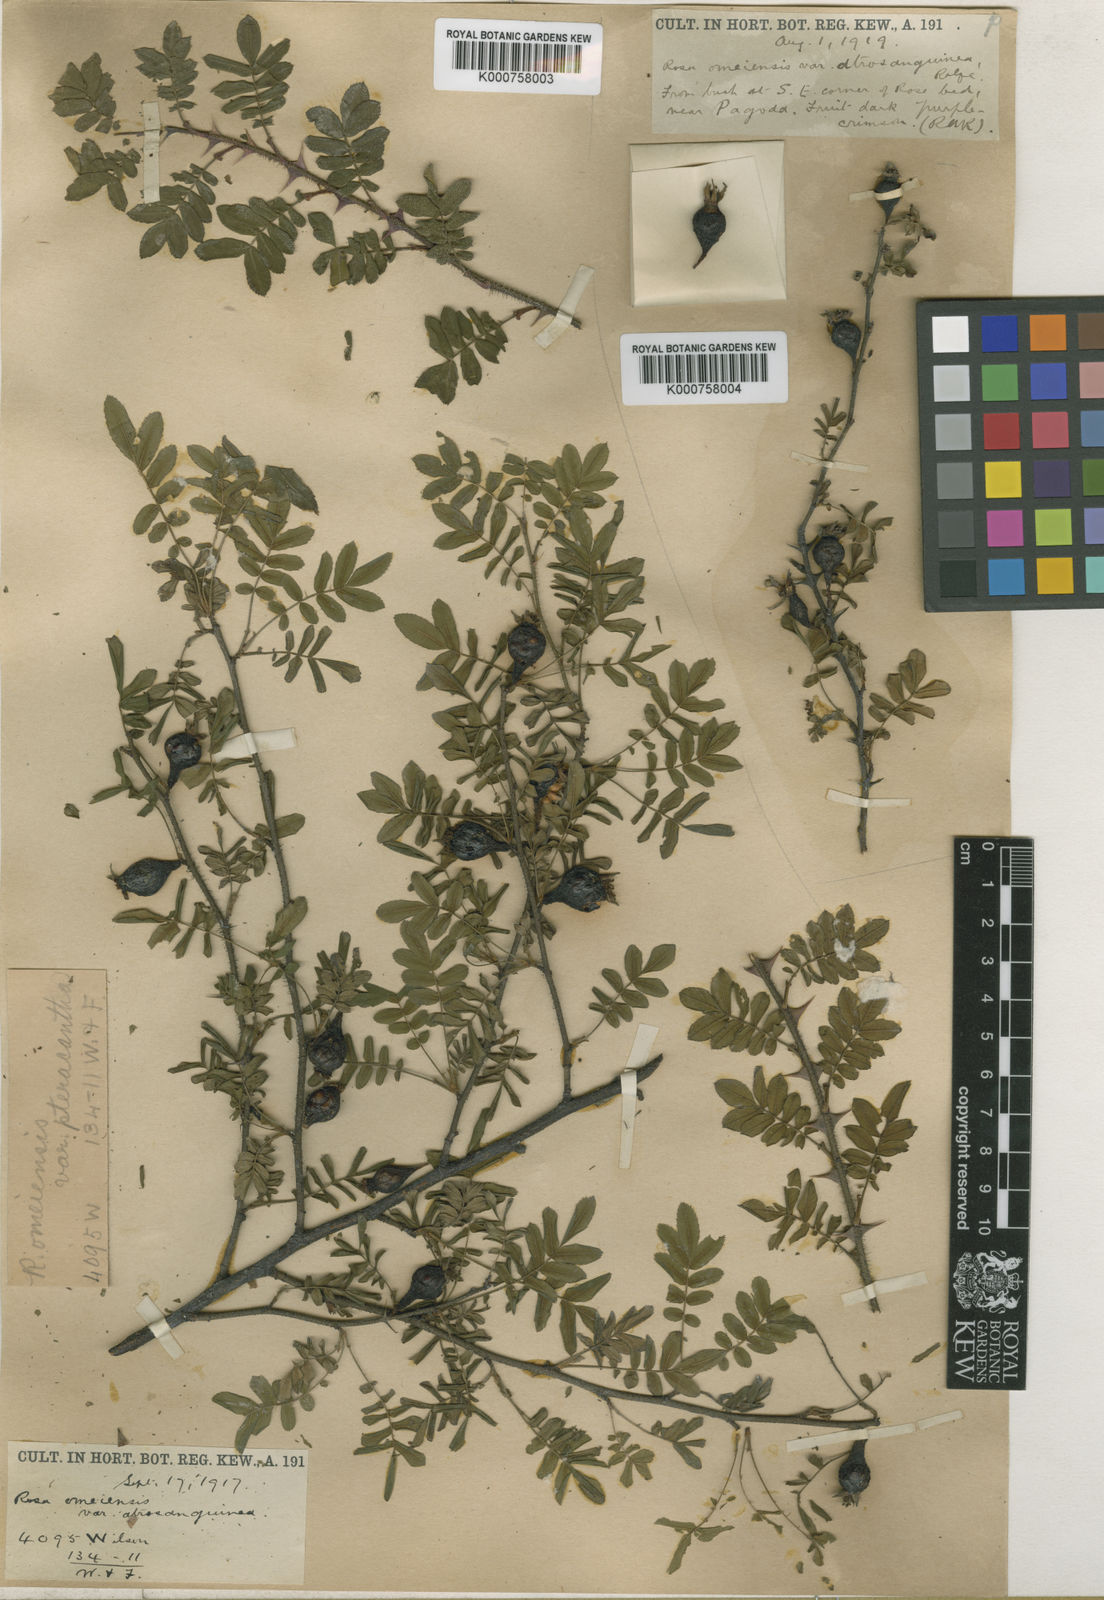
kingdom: Plantae
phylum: Tracheophyta
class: Magnoliopsida
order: Rosales
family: Rosaceae
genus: Rosa
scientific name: Rosa omeiensis
